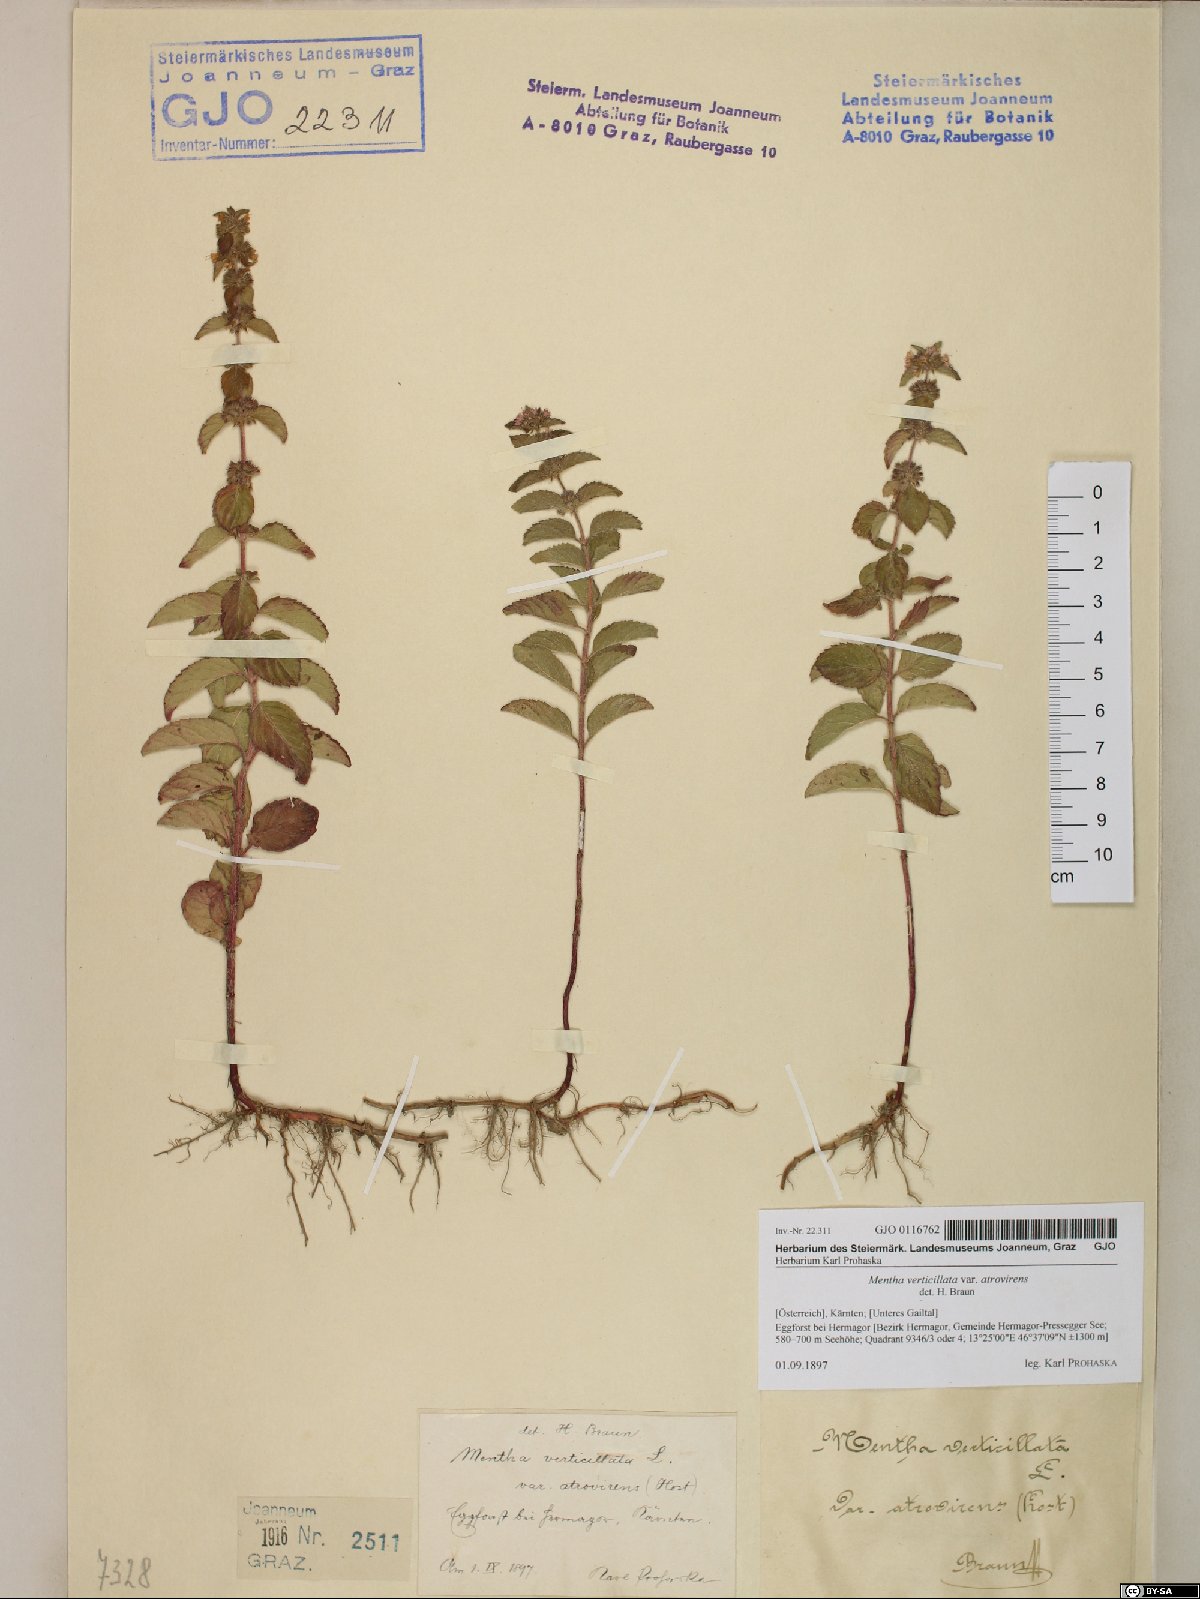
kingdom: Plantae
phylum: Tracheophyta
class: Magnoliopsida
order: Lamiales
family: Lamiaceae
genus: Mentha
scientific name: Mentha verticillata
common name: Mint
